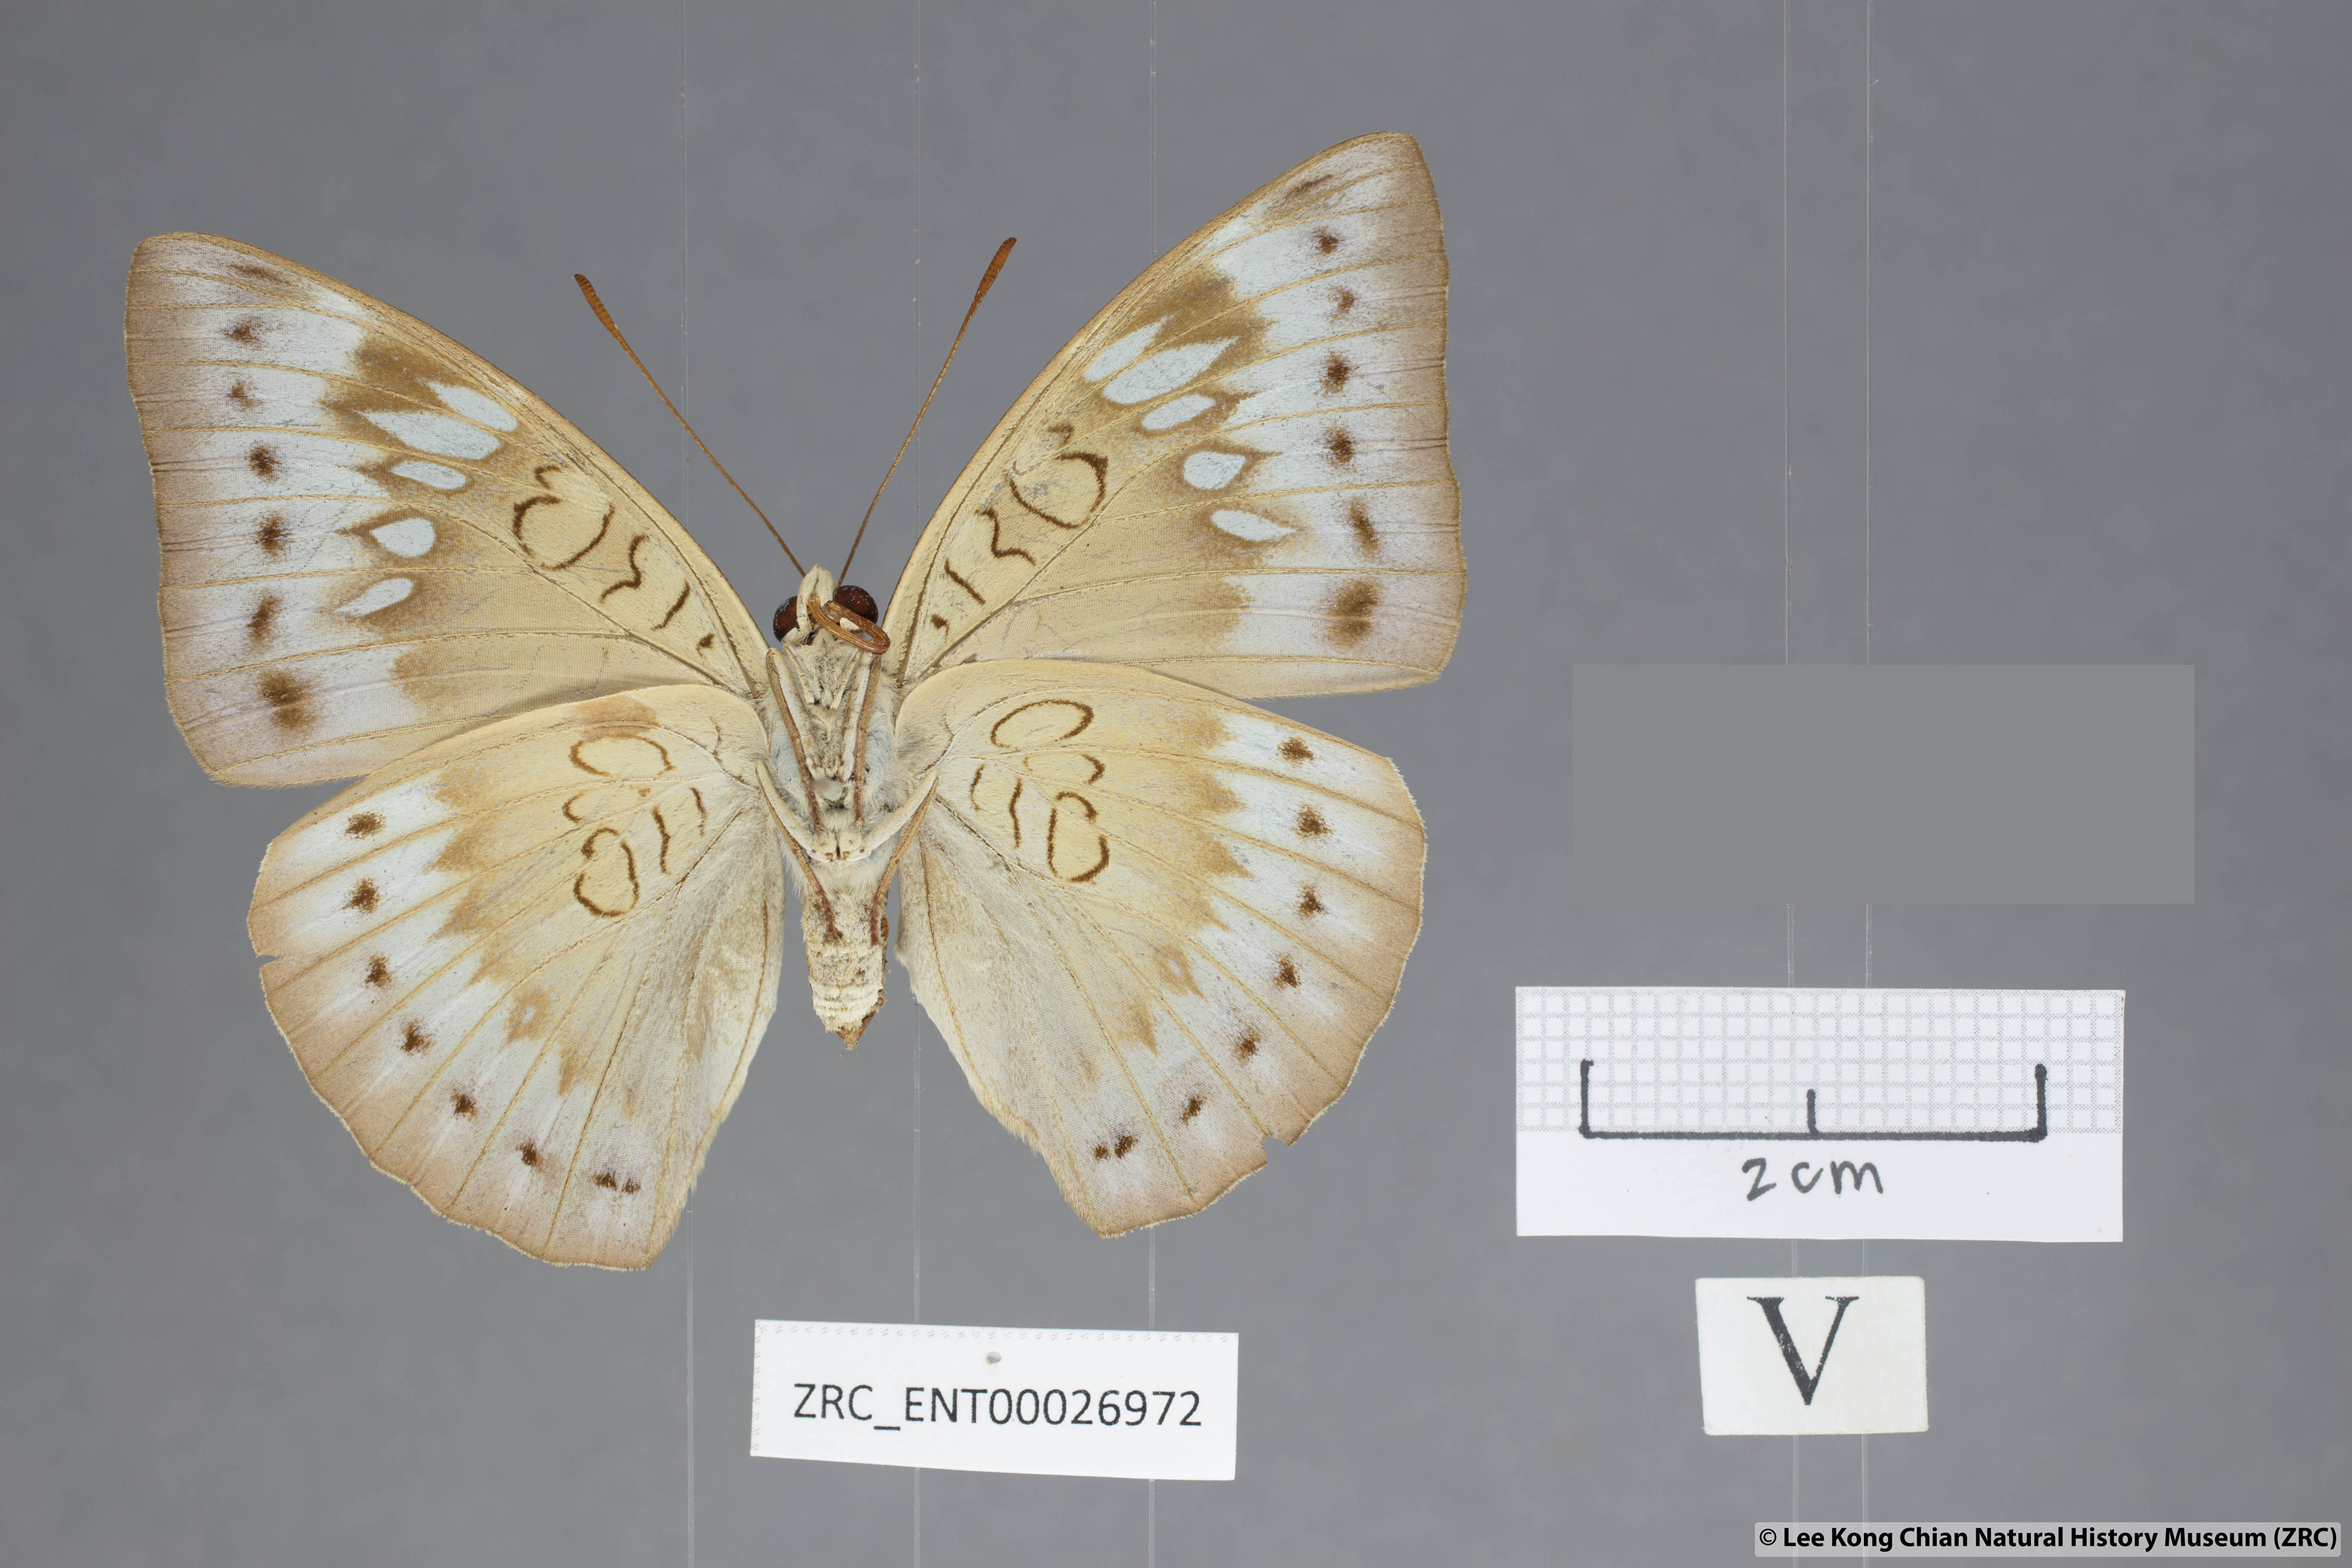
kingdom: Animalia
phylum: Arthropoda
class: Insecta
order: Lepidoptera
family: Nymphalidae
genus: Euthalia
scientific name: Euthalia merta
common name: White tipped baron
